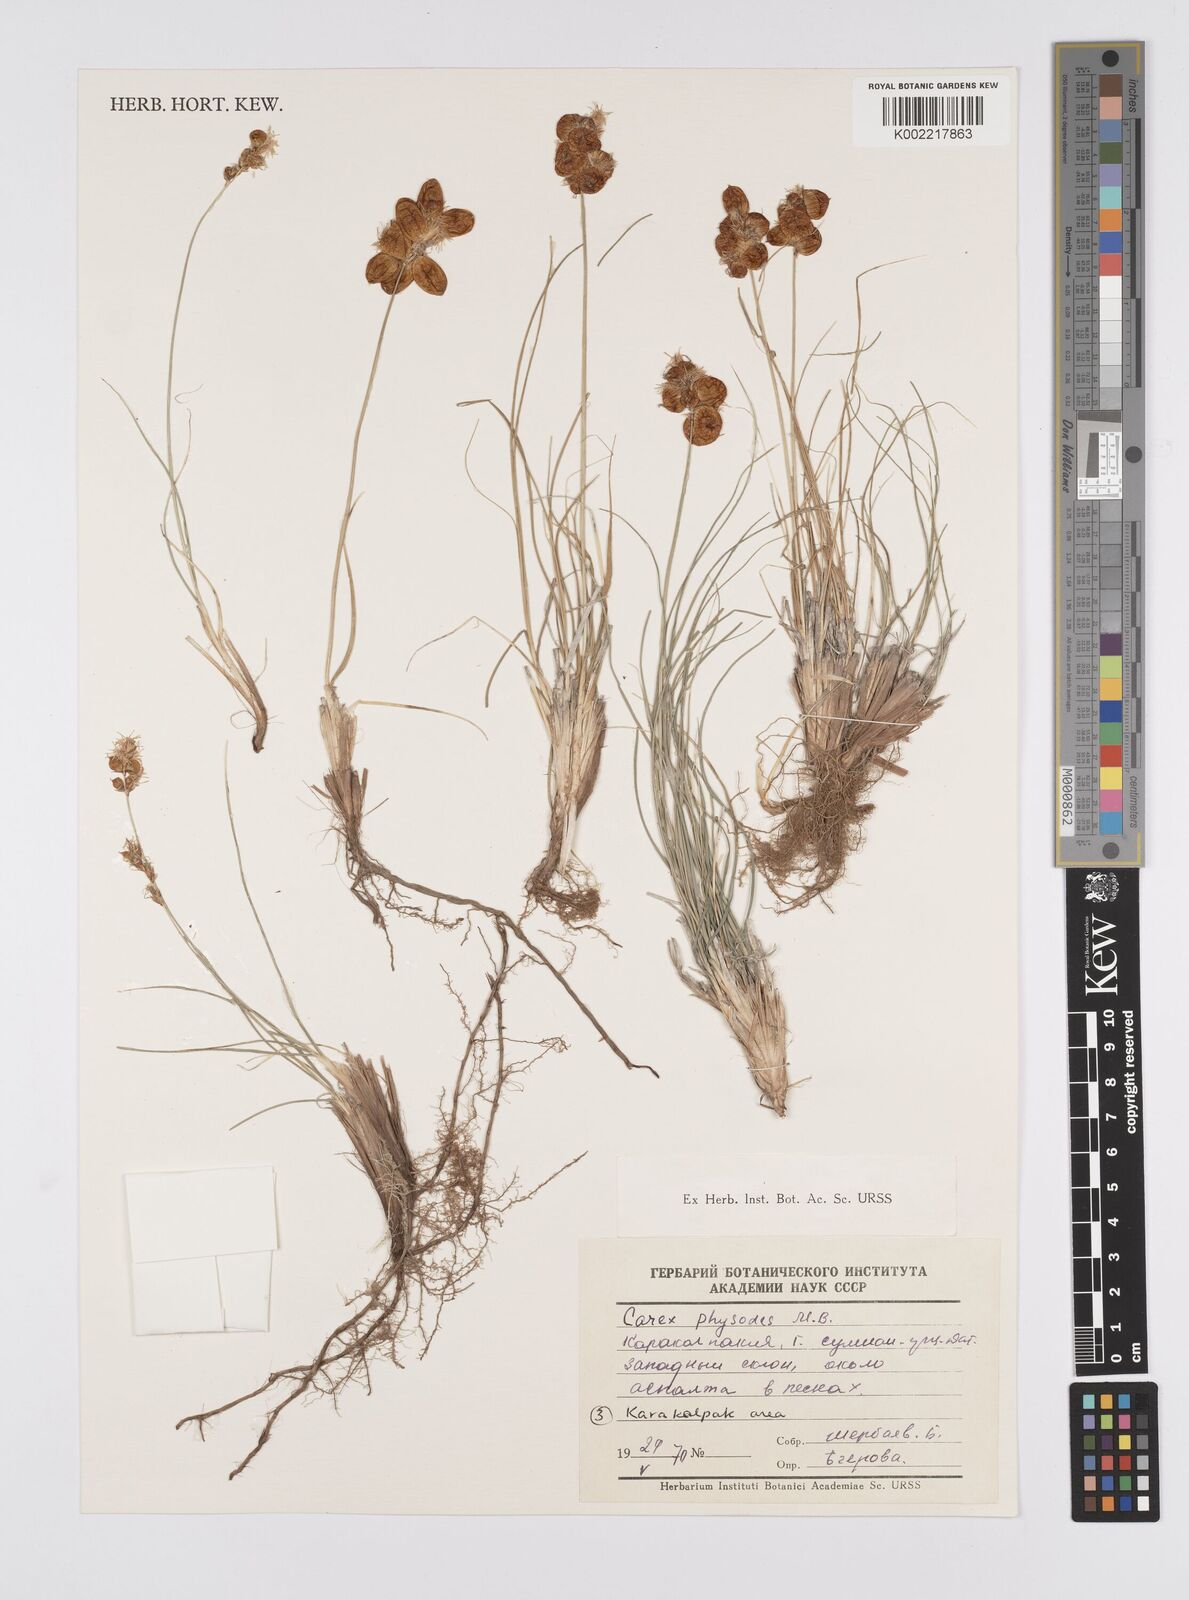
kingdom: Plantae
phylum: Tracheophyta
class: Liliopsida
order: Poales
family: Cyperaceae
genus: Carex
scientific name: Carex physodes
